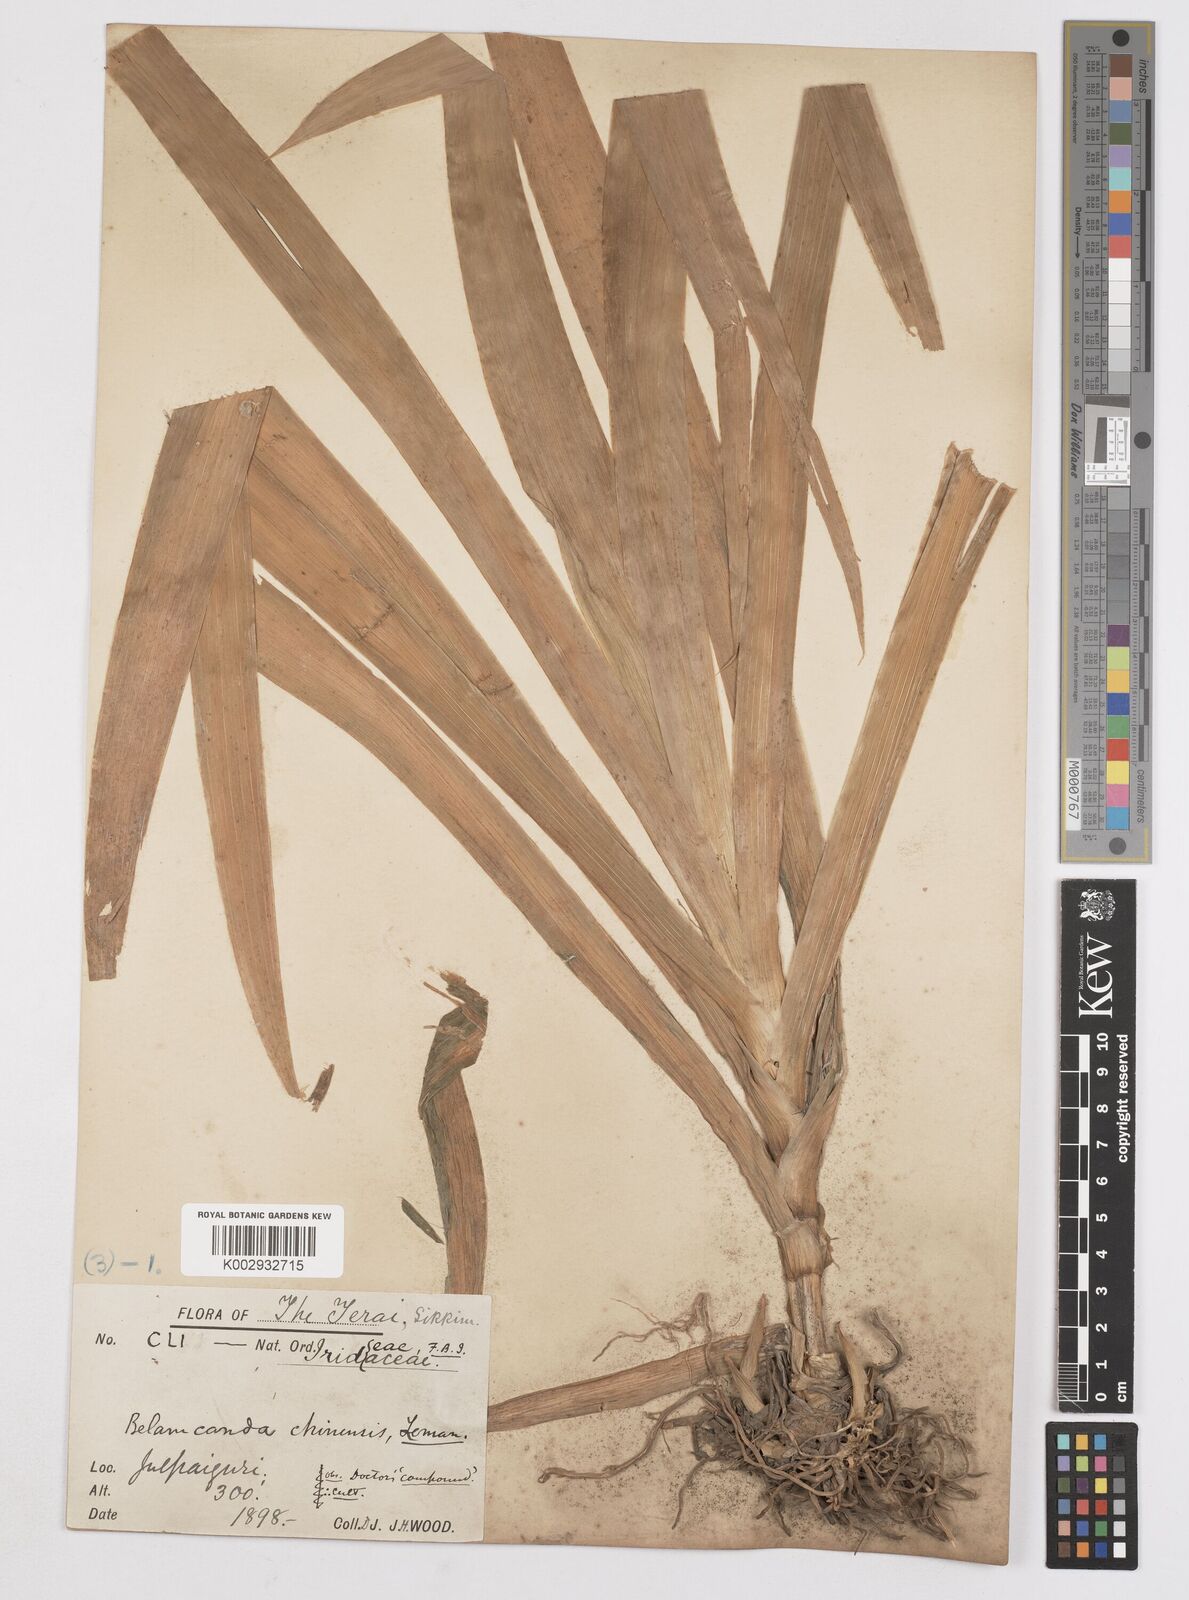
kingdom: Plantae
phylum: Tracheophyta
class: Liliopsida
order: Asparagales
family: Iridaceae
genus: Iris
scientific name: Iris
